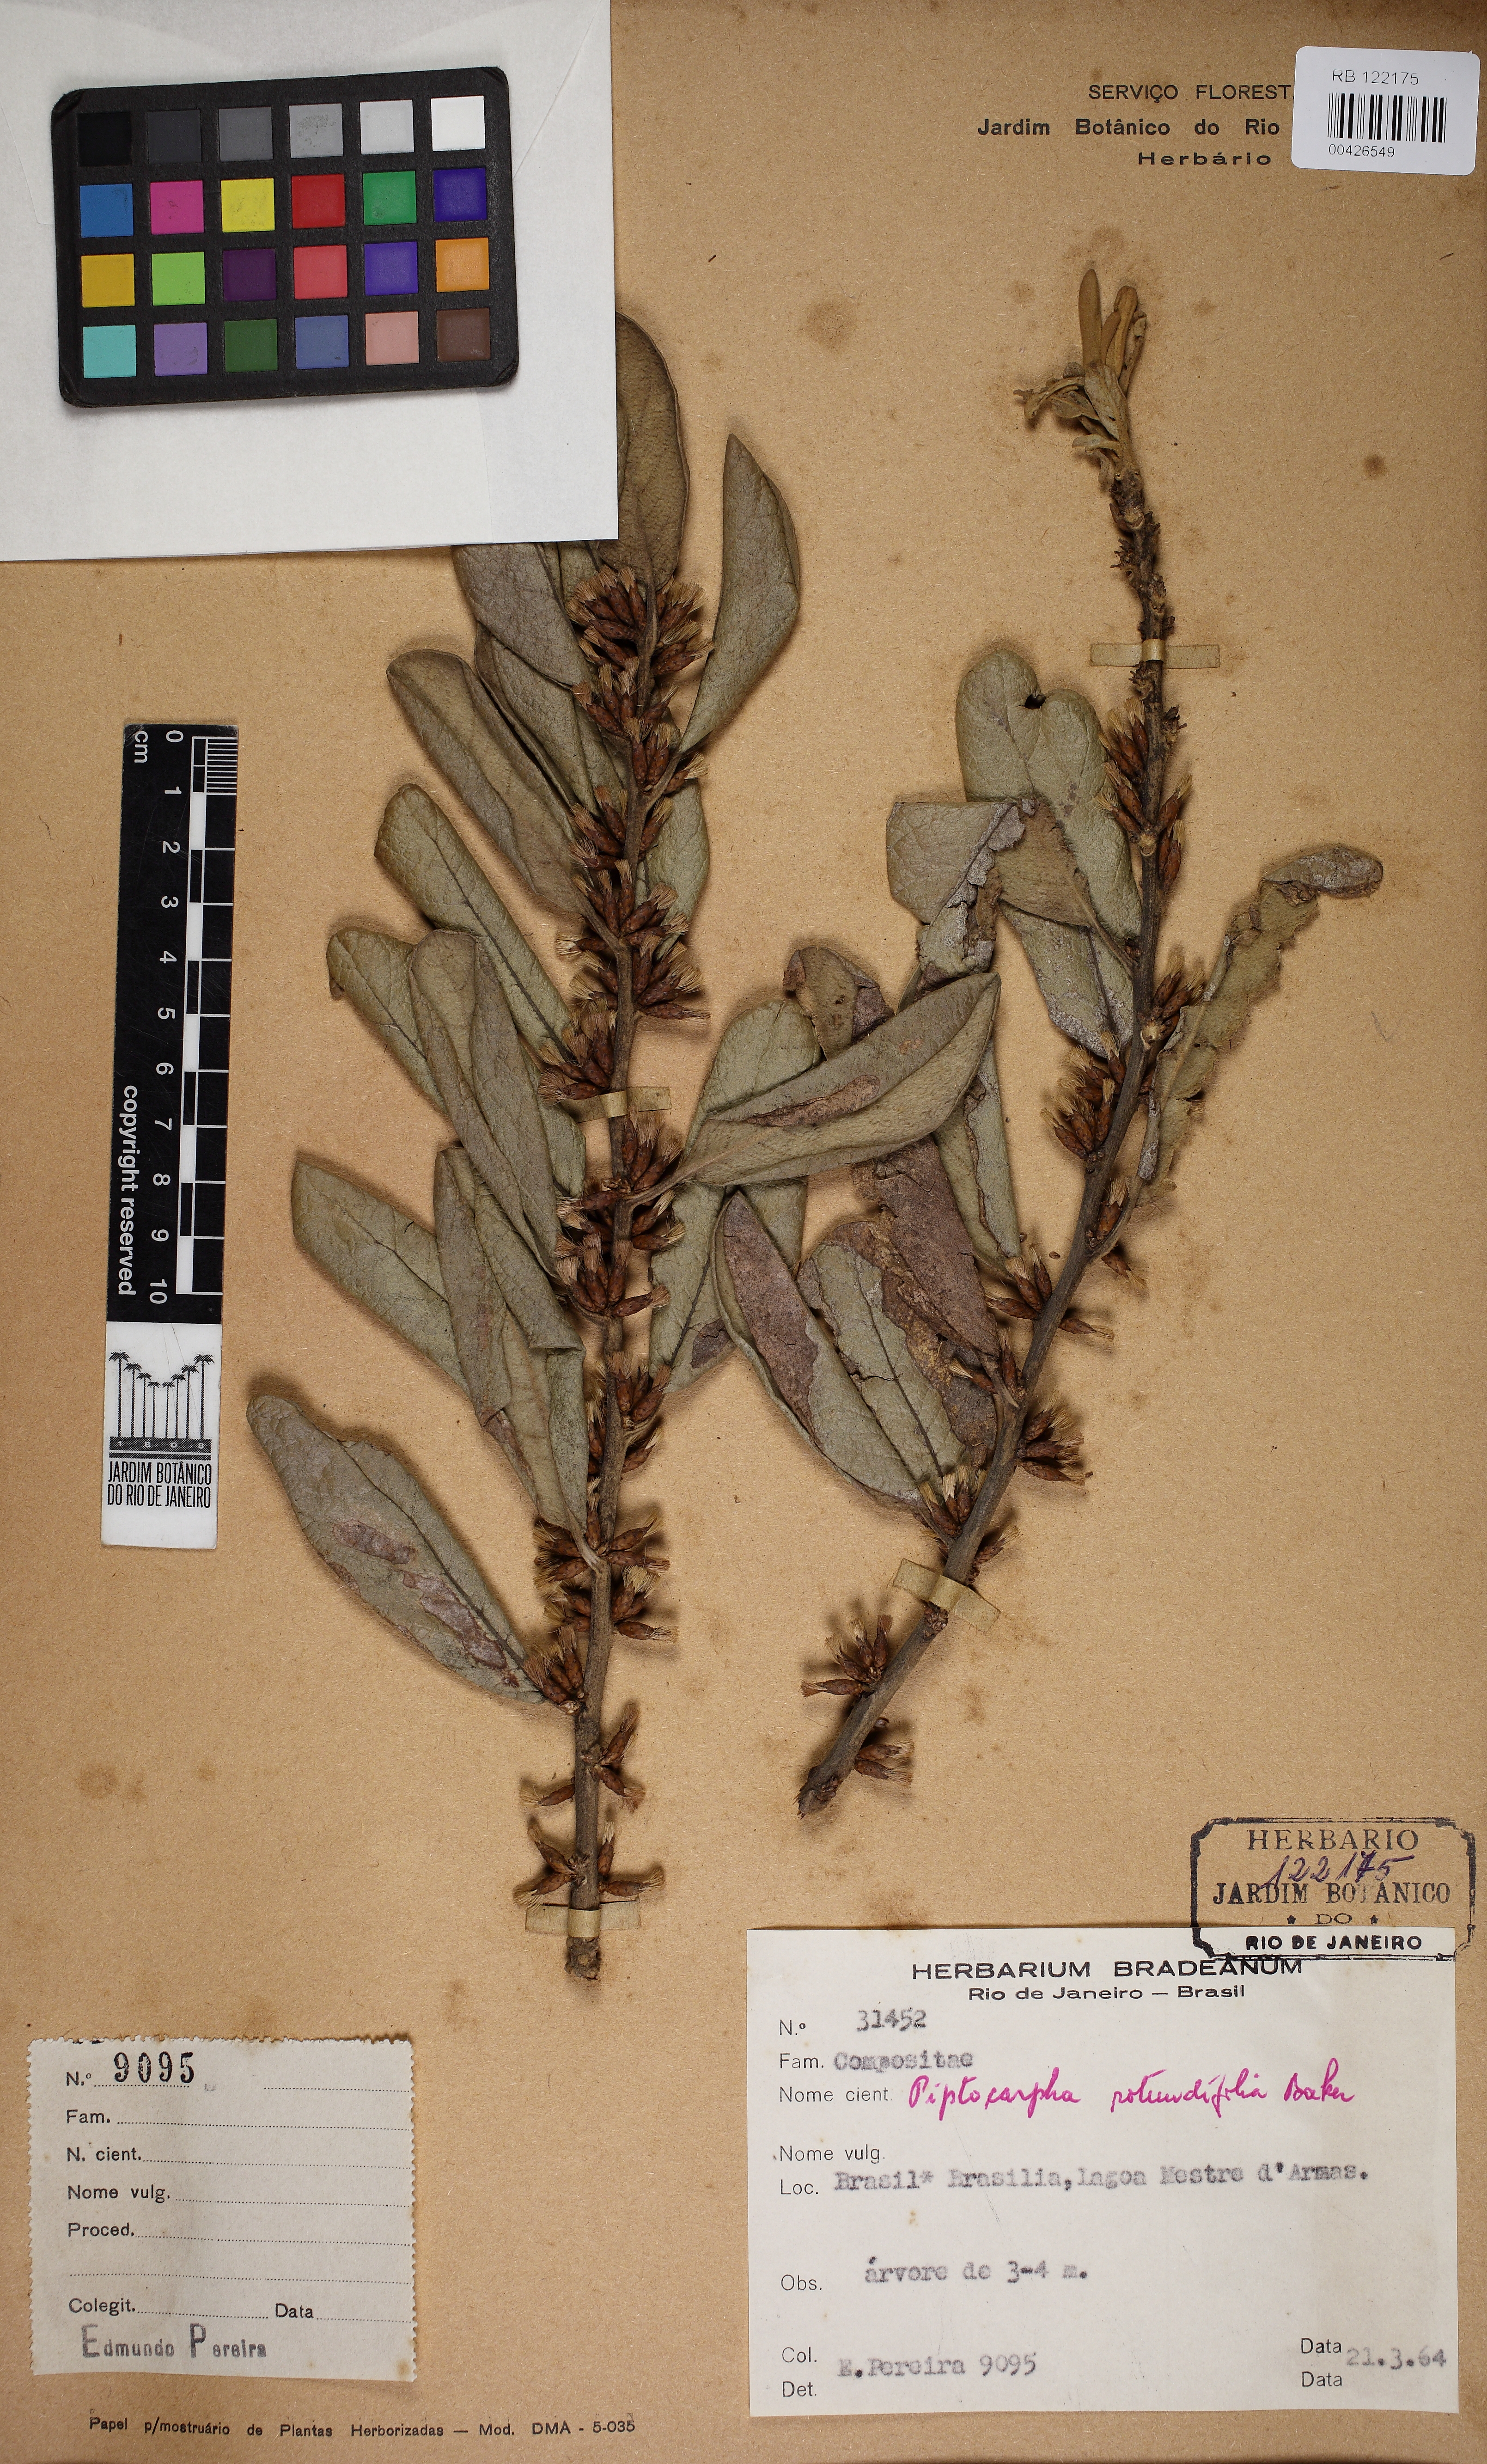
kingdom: Plantae
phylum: Tracheophyta
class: Magnoliopsida
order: Asterales
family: Asteraceae
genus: Piptocarpha
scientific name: Piptocarpha rotundifolia
